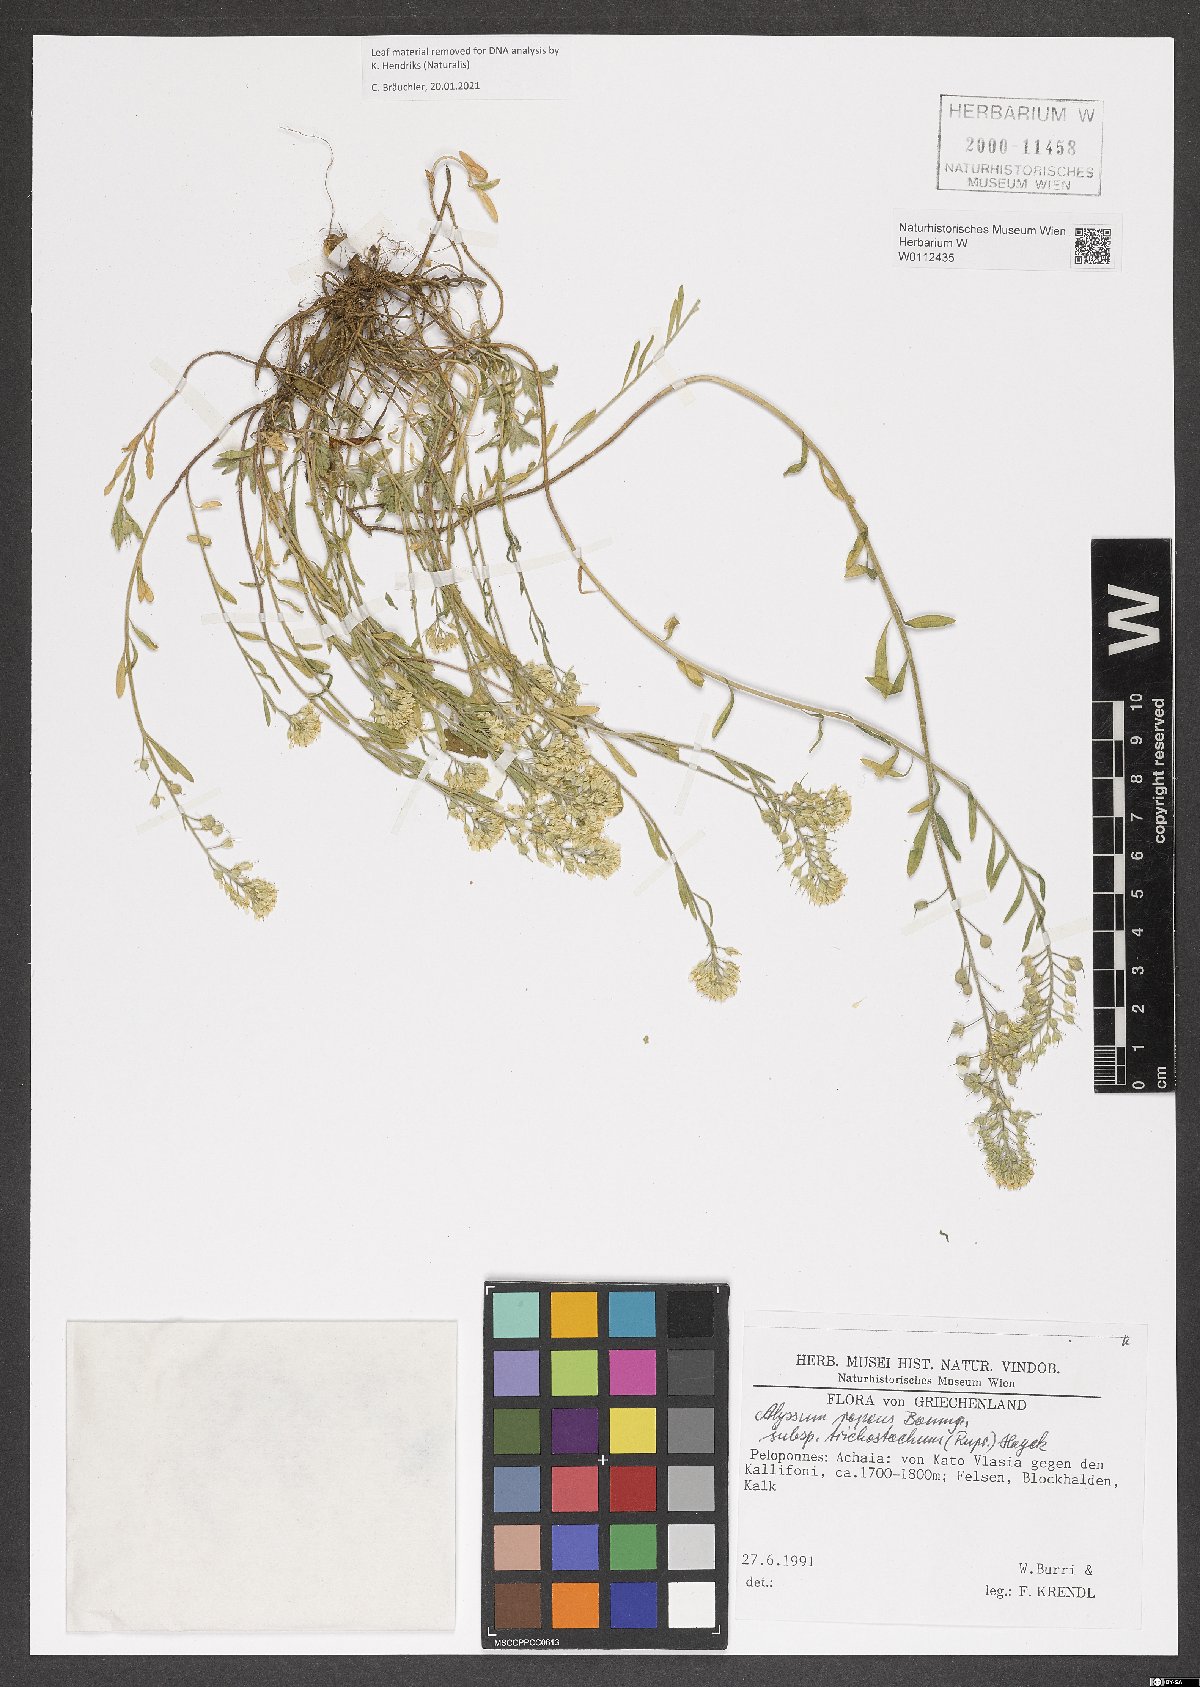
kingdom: Plantae
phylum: Tracheophyta
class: Magnoliopsida
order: Brassicales
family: Brassicaceae
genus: Alyssum
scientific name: Alyssum trichostachyum
